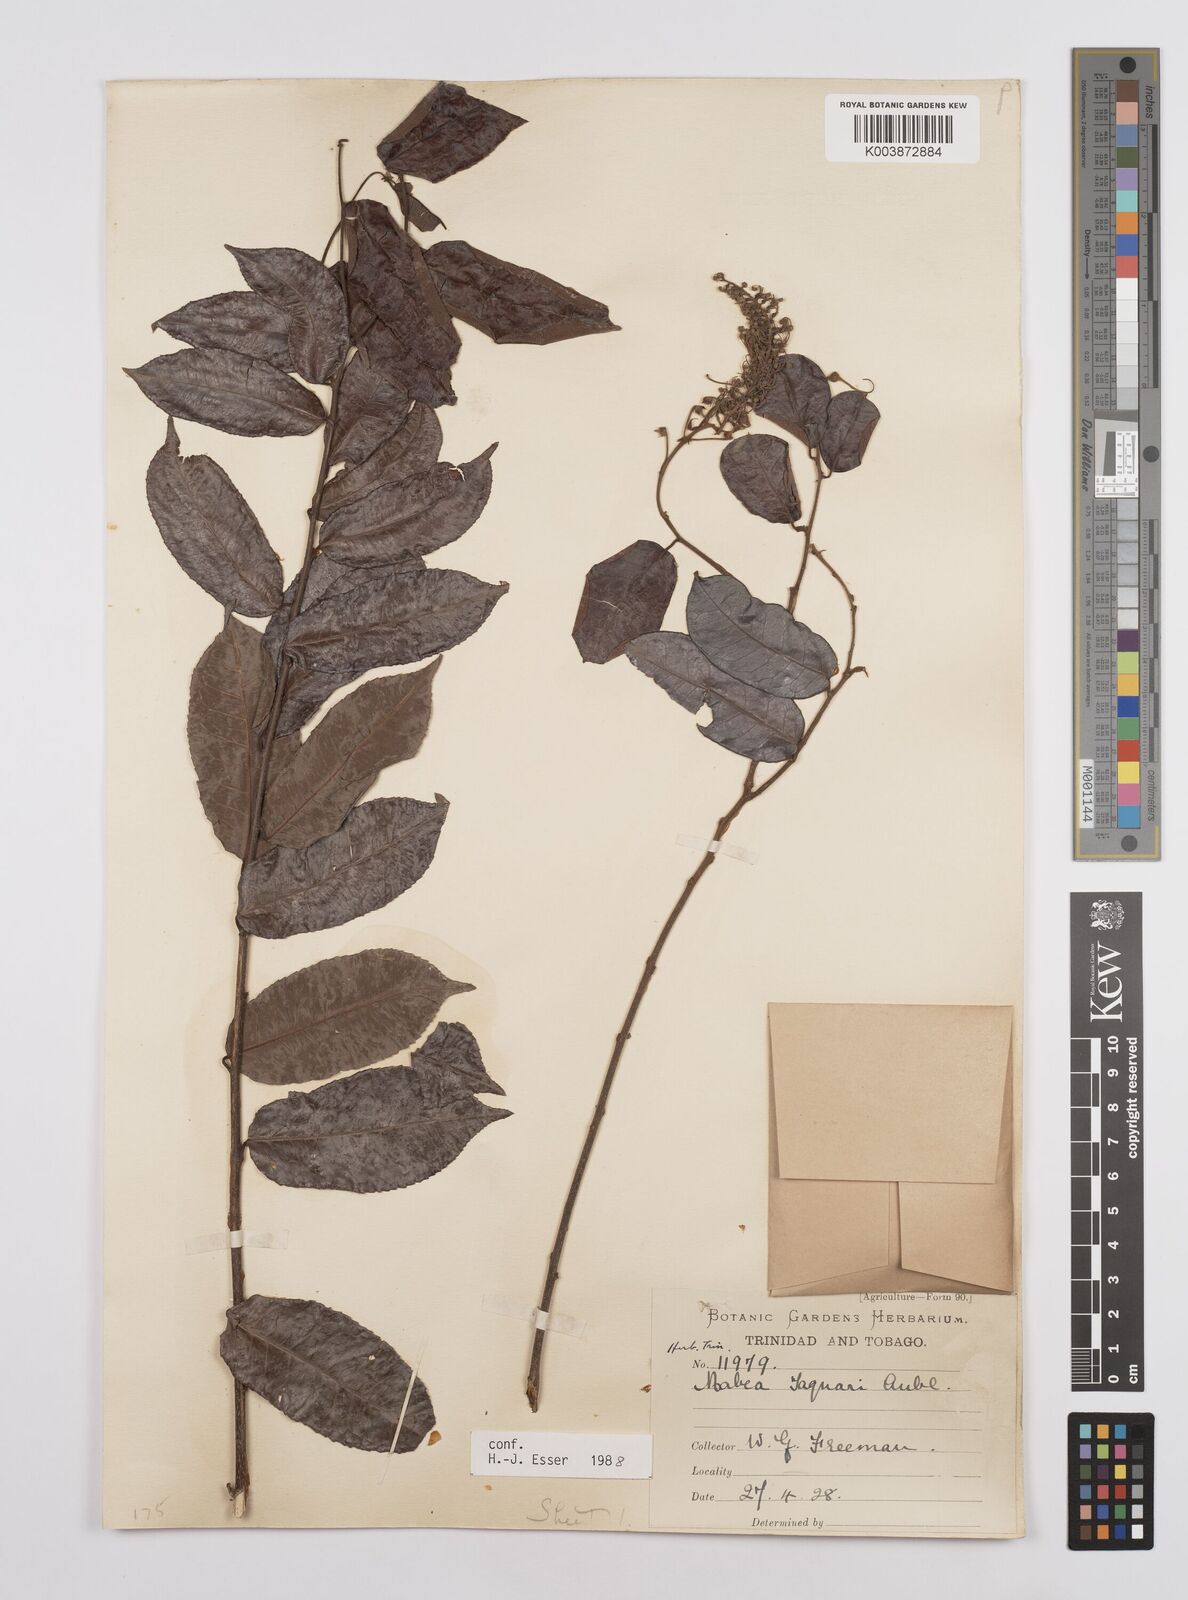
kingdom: Plantae
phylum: Tracheophyta
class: Magnoliopsida
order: Malpighiales
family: Euphorbiaceae
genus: Mabea
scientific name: Mabea taquari
